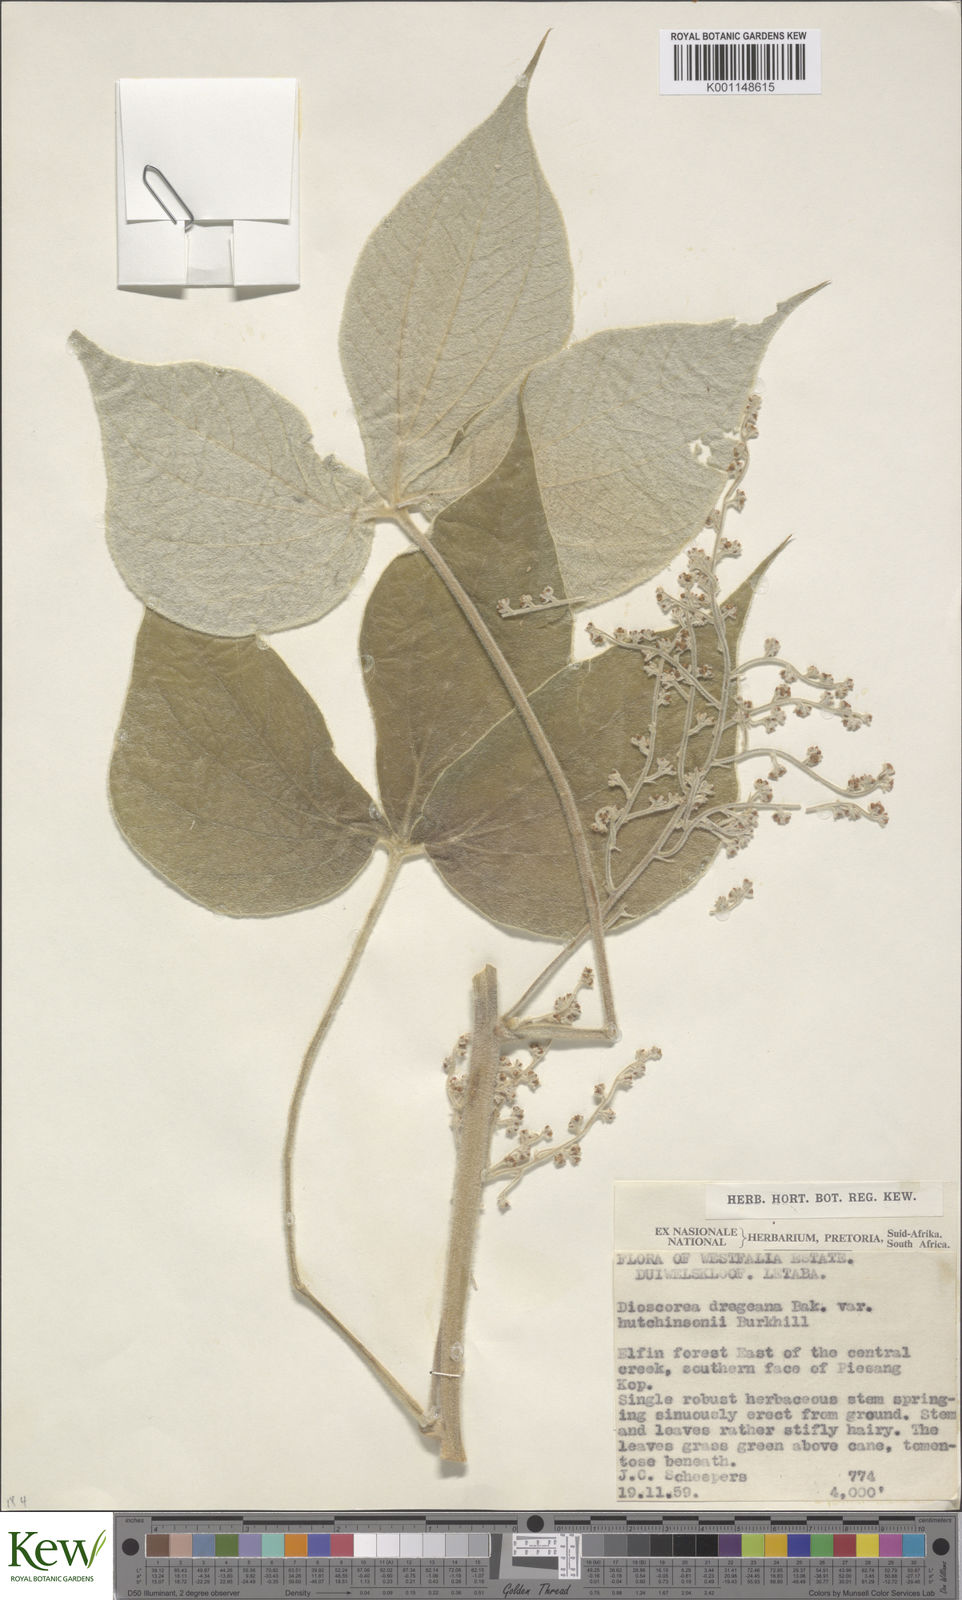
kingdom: Plantae
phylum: Tracheophyta
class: Liliopsida
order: Dioscoreales
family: Dioscoreaceae
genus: Dioscorea
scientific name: Dioscorea dregeana
